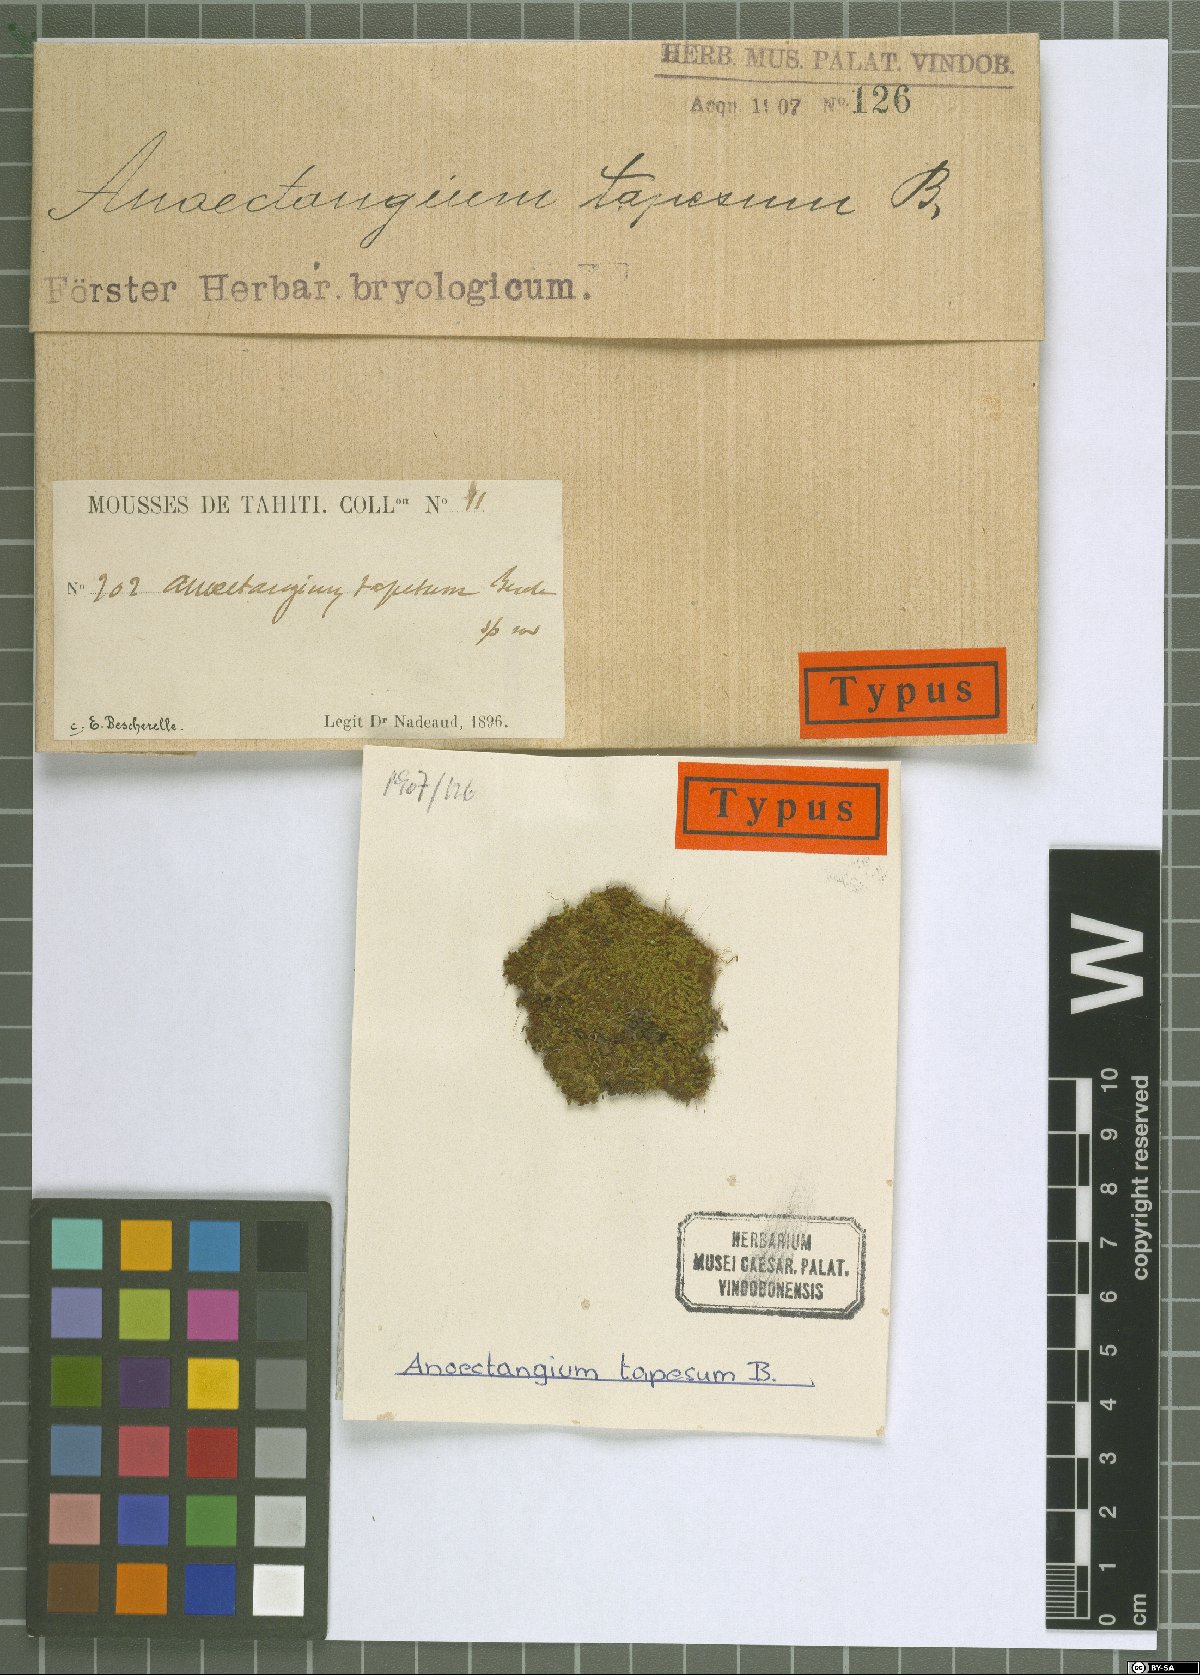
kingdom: Plantae
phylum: Bryophyta
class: Bryopsida
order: Pottiales
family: Pottiaceae
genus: Anoectangium
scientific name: Anoectangium tapes
